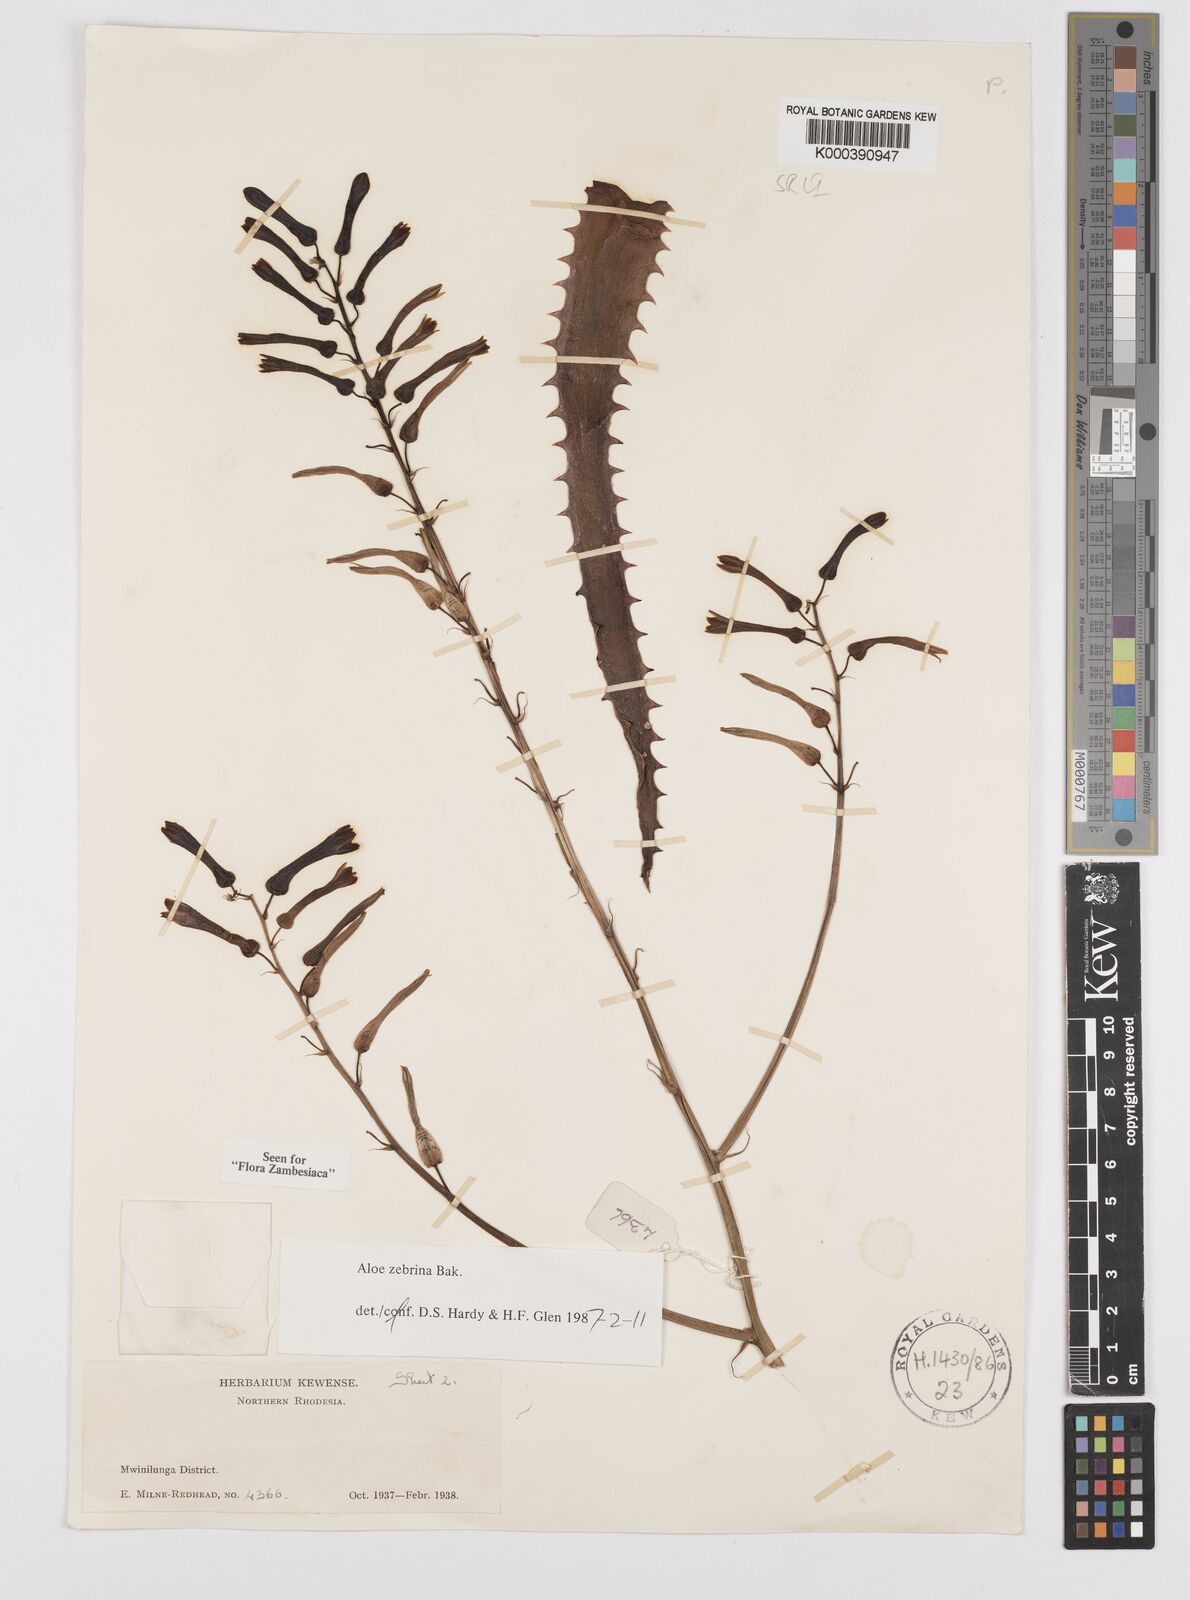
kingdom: Plantae
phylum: Tracheophyta
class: Liliopsida
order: Asparagales
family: Asphodelaceae
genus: Aloe
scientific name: Aloe zebrina
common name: Zebra-leaf aloe
